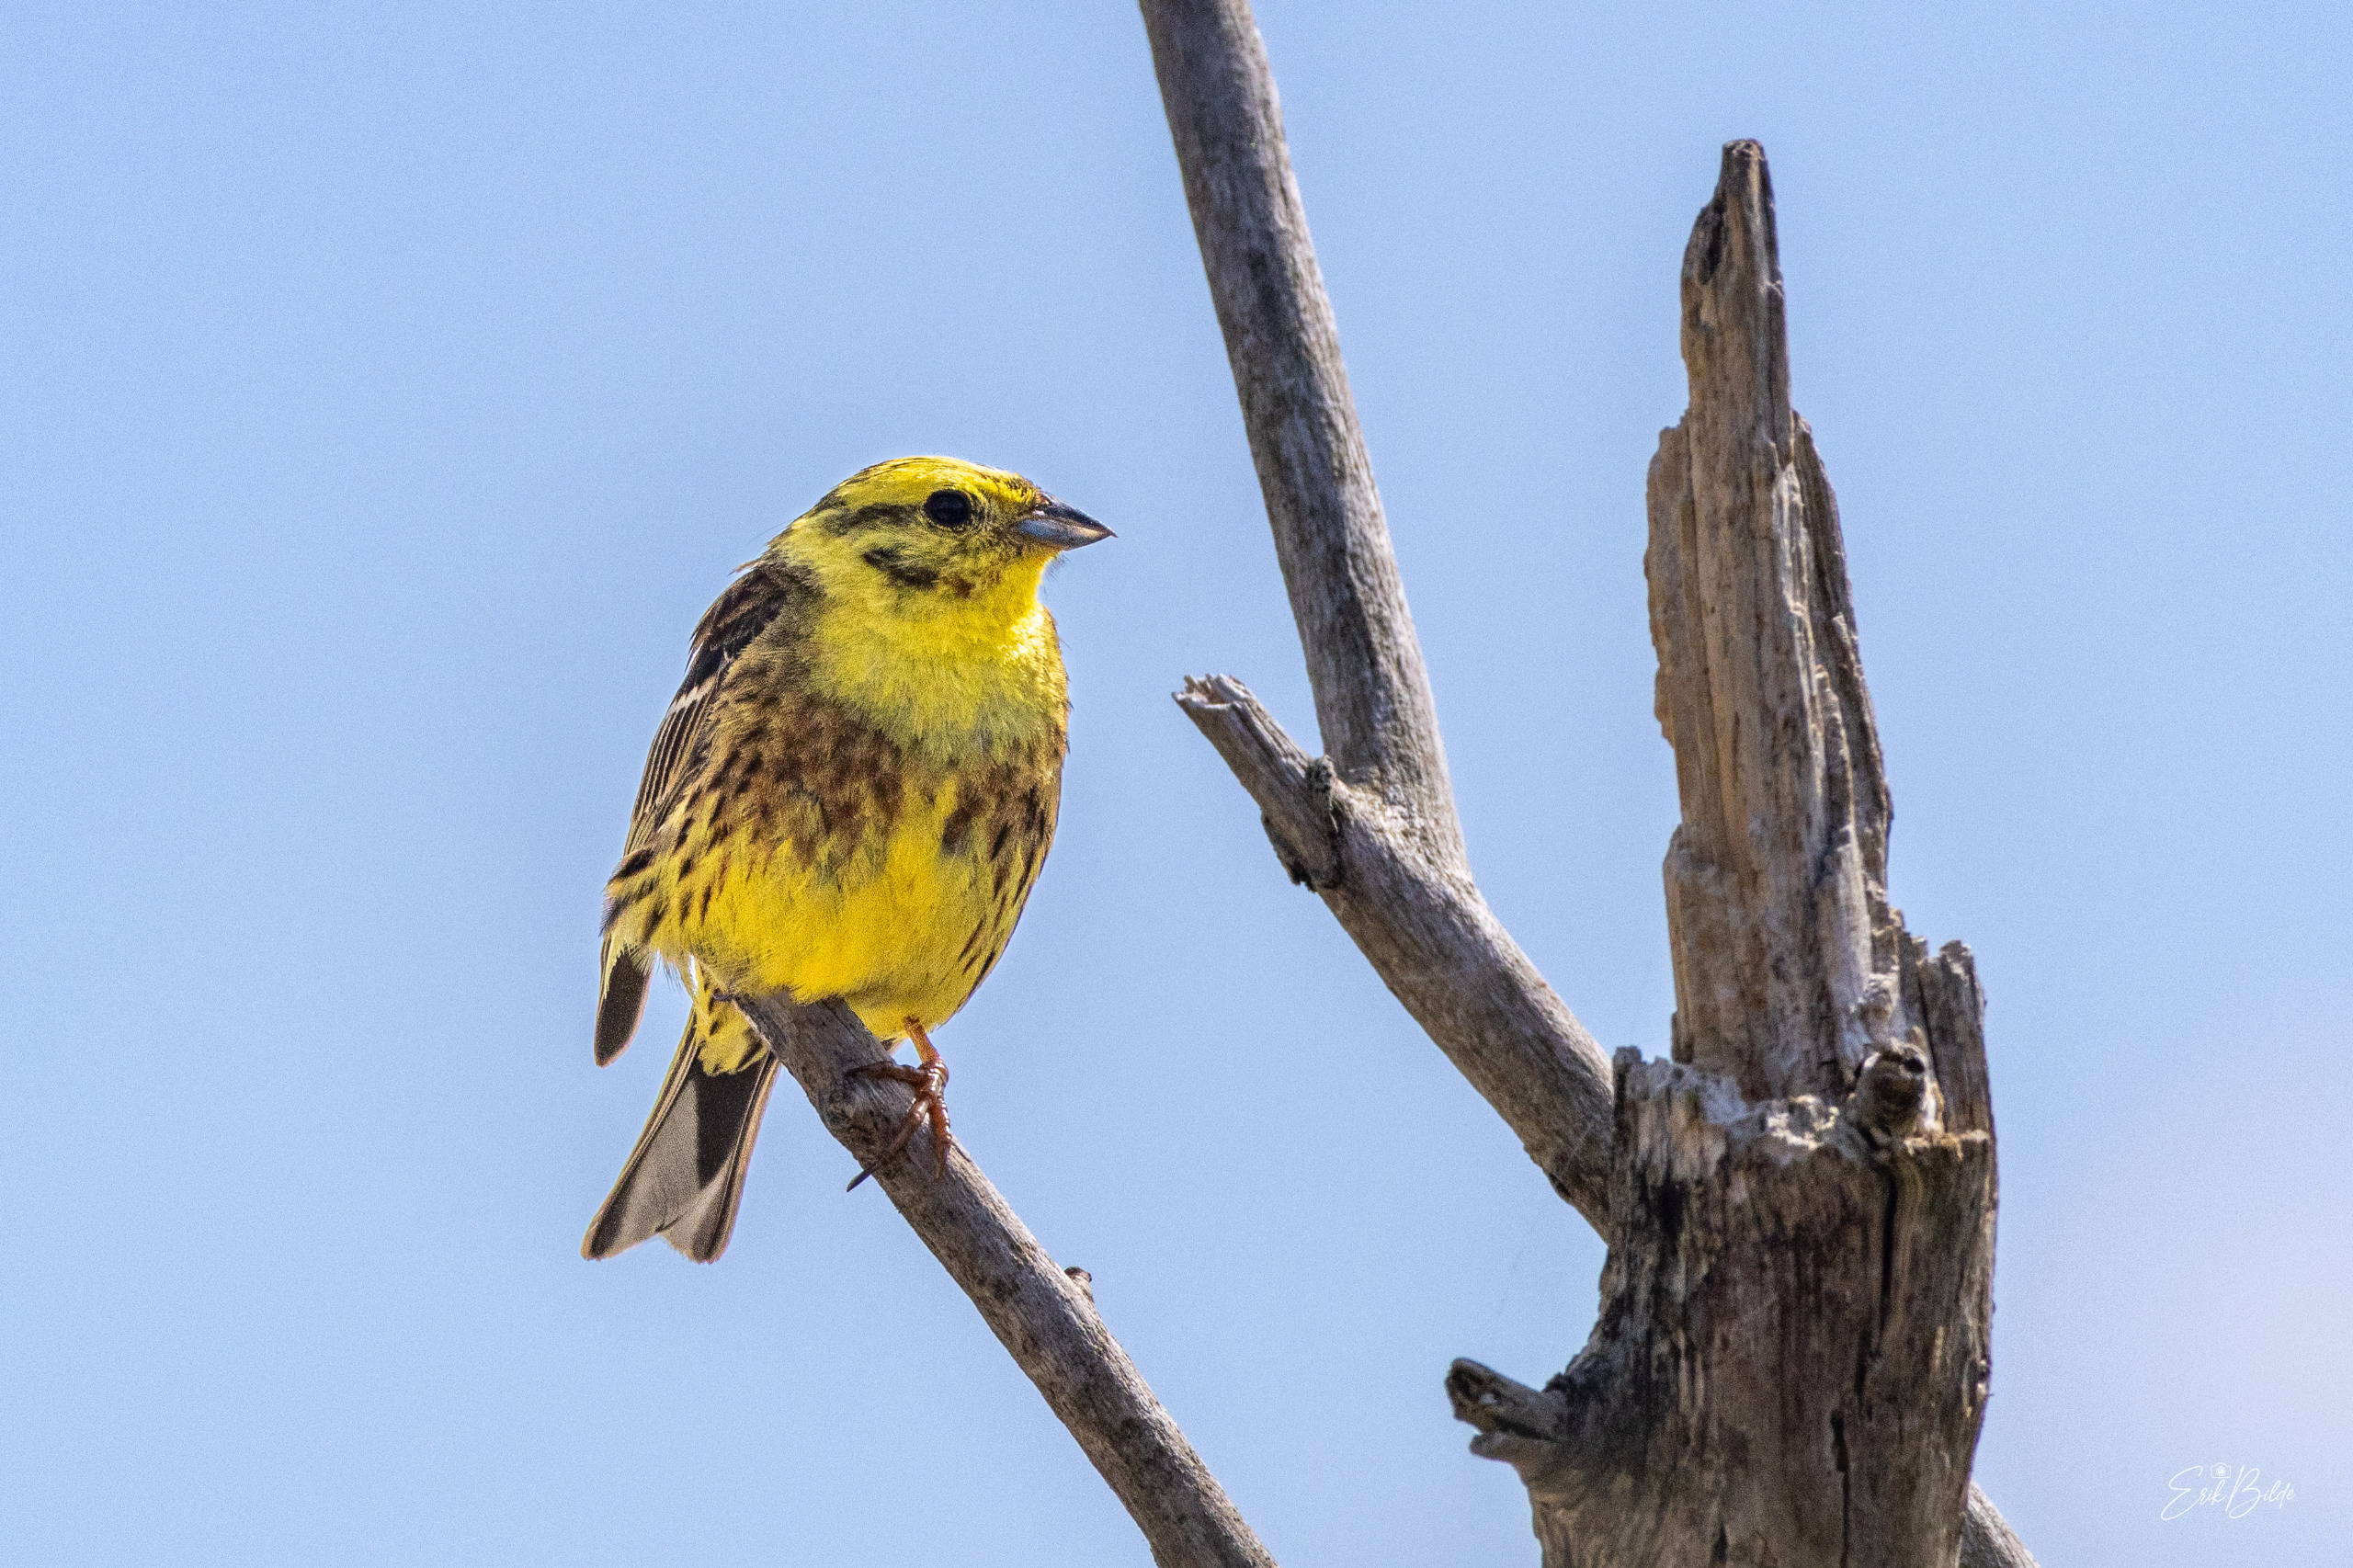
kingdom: Animalia
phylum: Chordata
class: Aves
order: Passeriformes
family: Emberizidae
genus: Emberiza
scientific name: Emberiza citrinella
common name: Gulspurv
